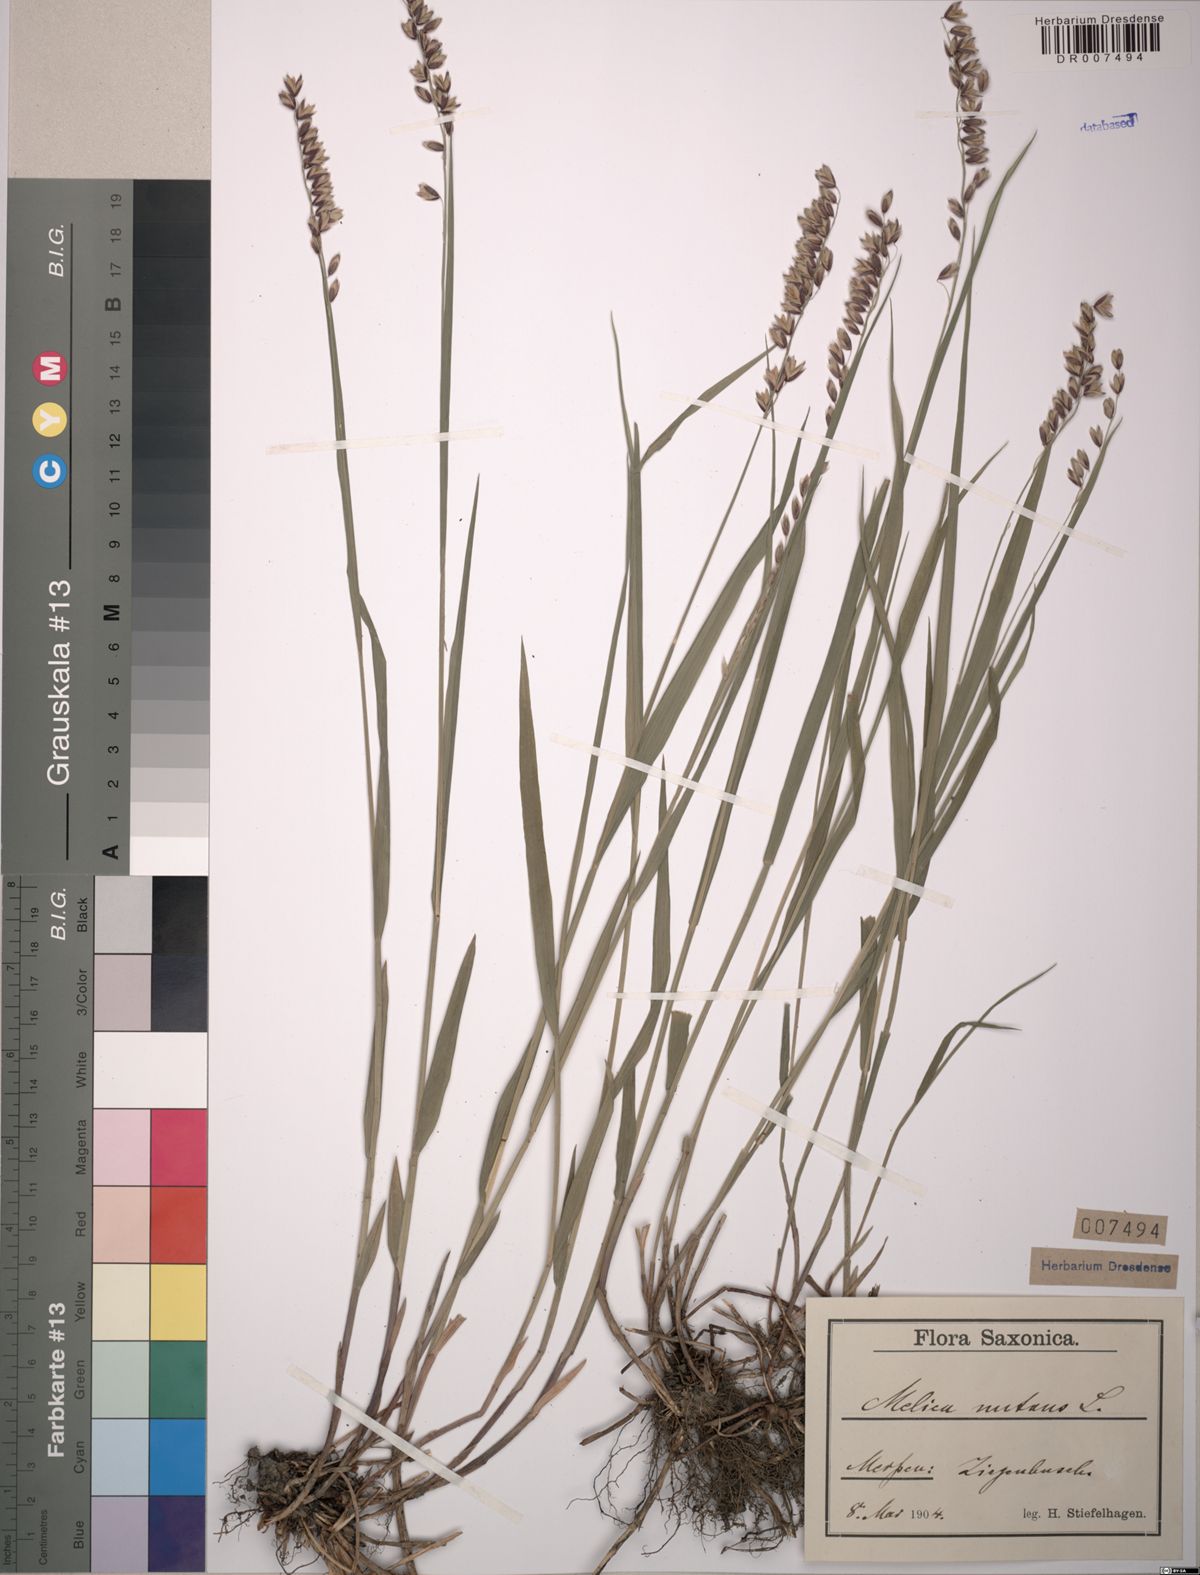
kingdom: Plantae
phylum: Tracheophyta
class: Liliopsida
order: Poales
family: Poaceae
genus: Melica
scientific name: Melica nutans
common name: Mountain melick
